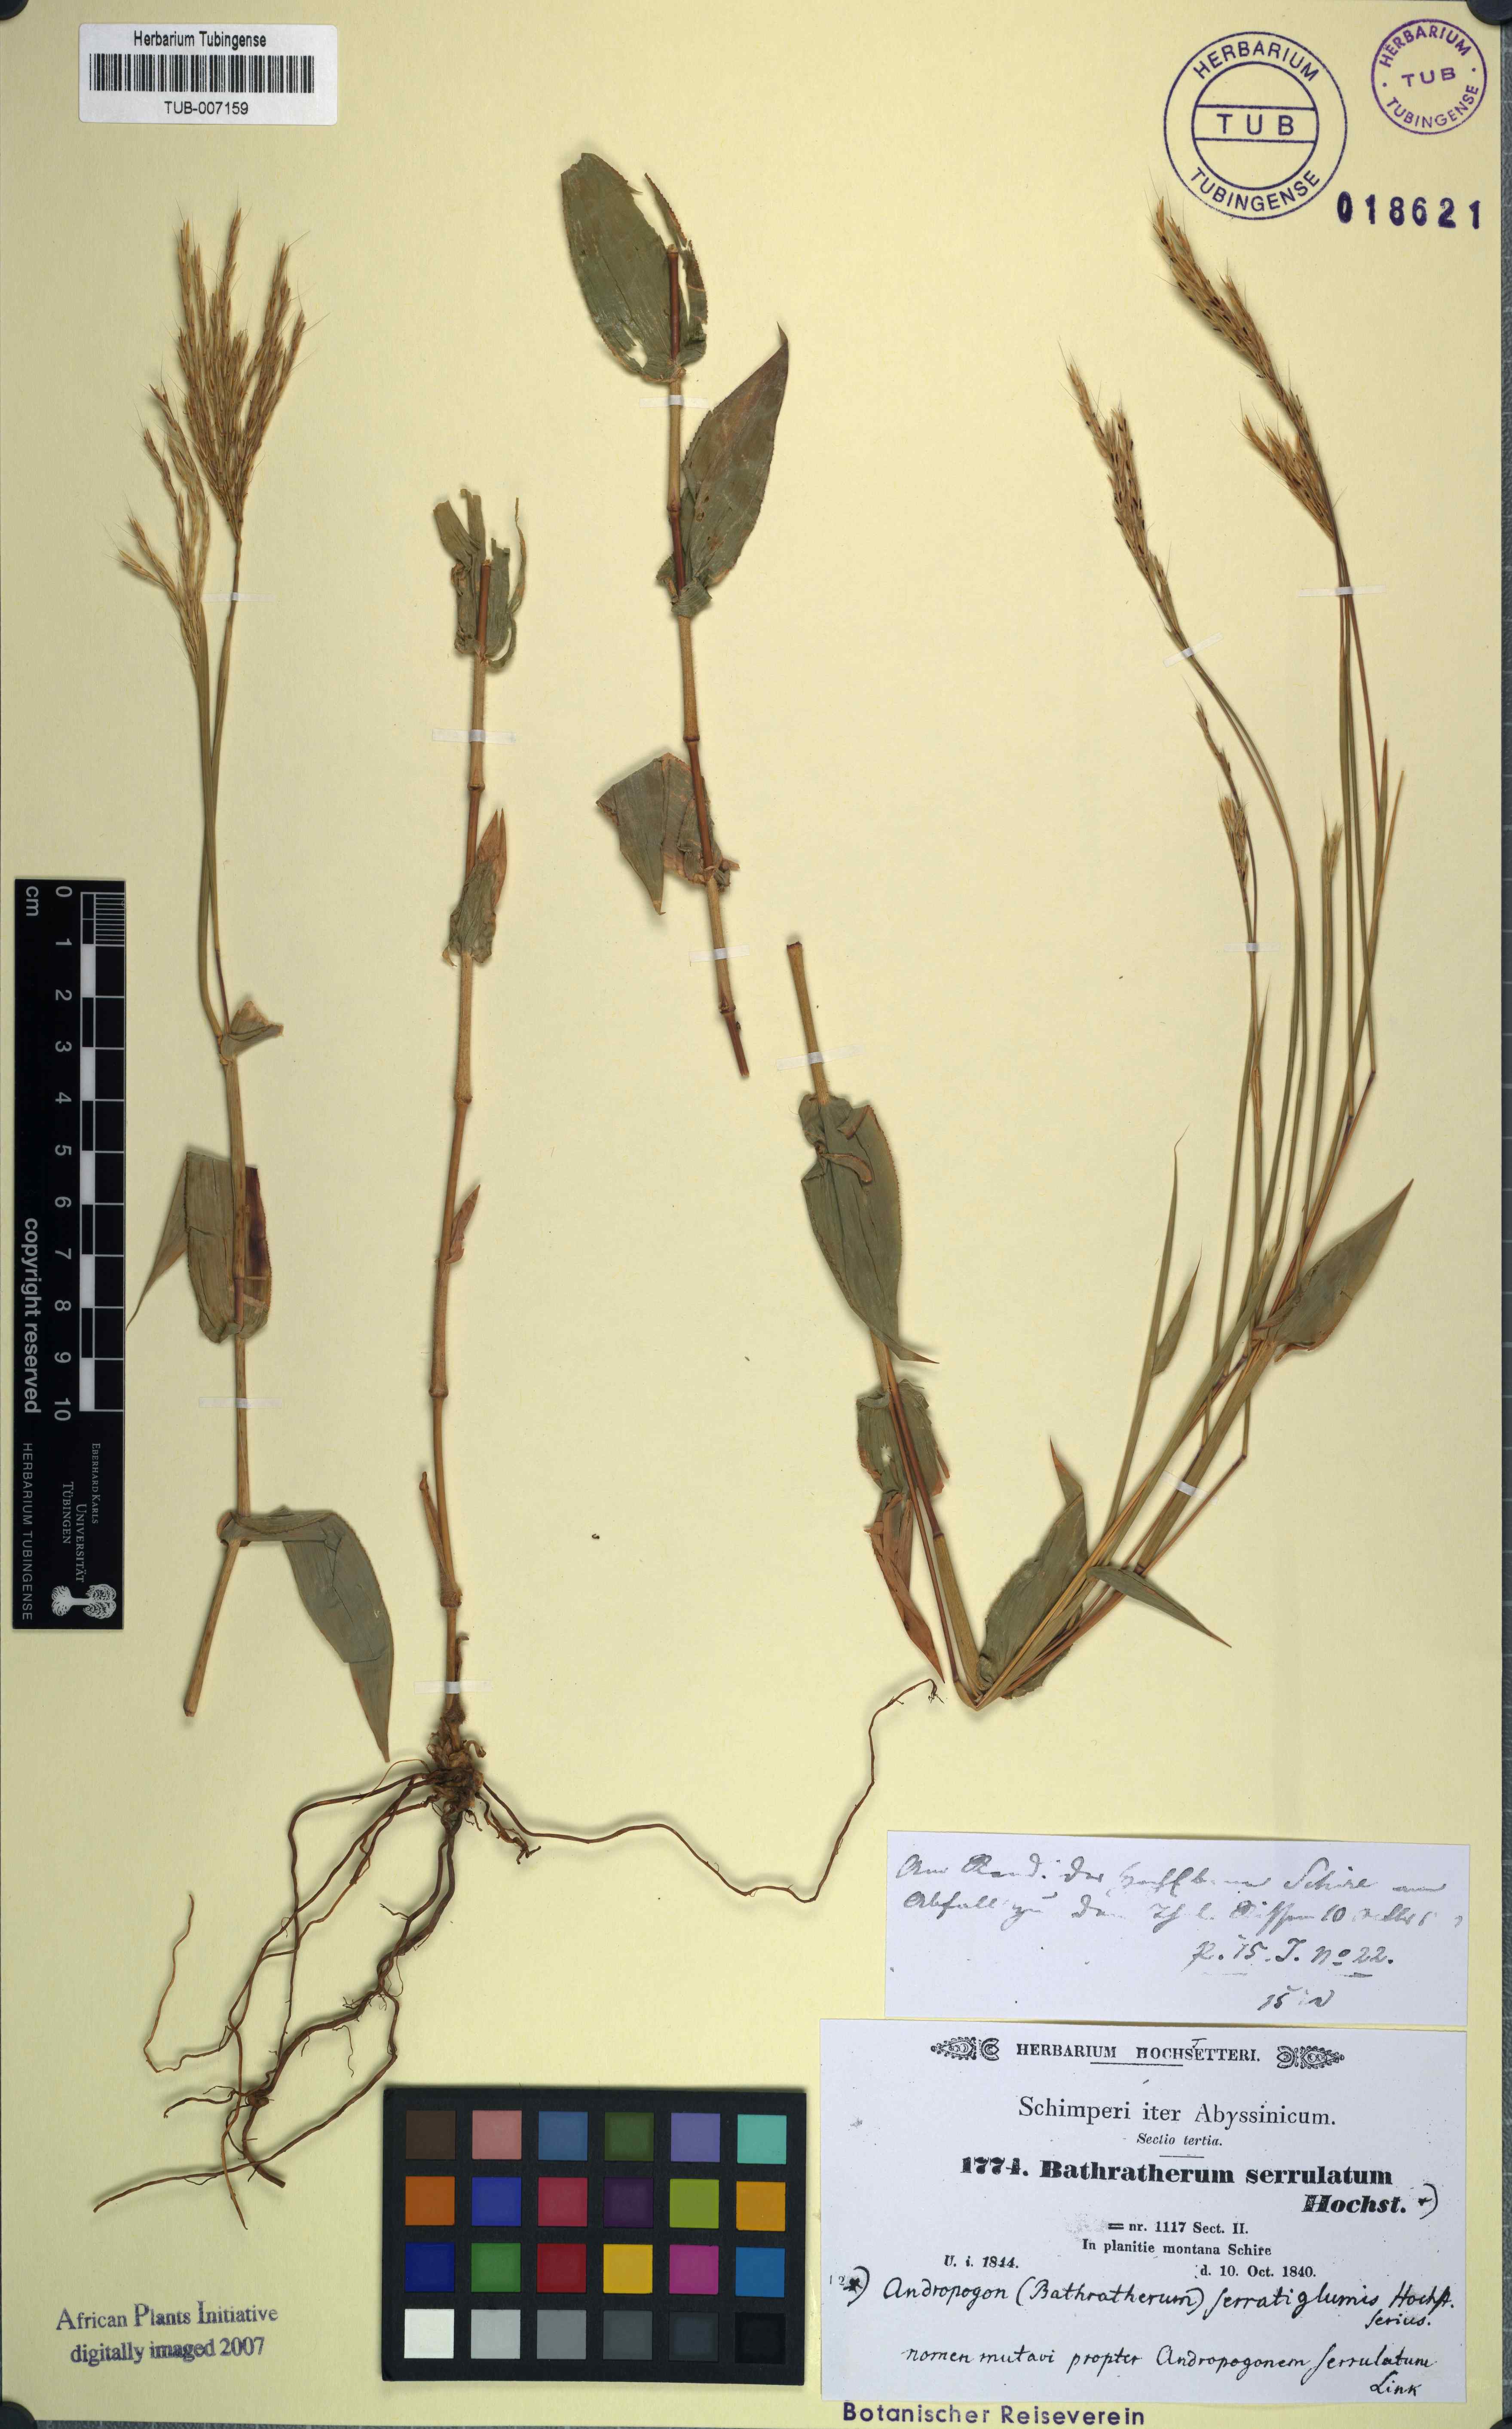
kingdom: Plantae
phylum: Tracheophyta
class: Liliopsida
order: Poales
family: Poaceae
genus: Arthraxon
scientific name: Arthraxon lanceolatus
